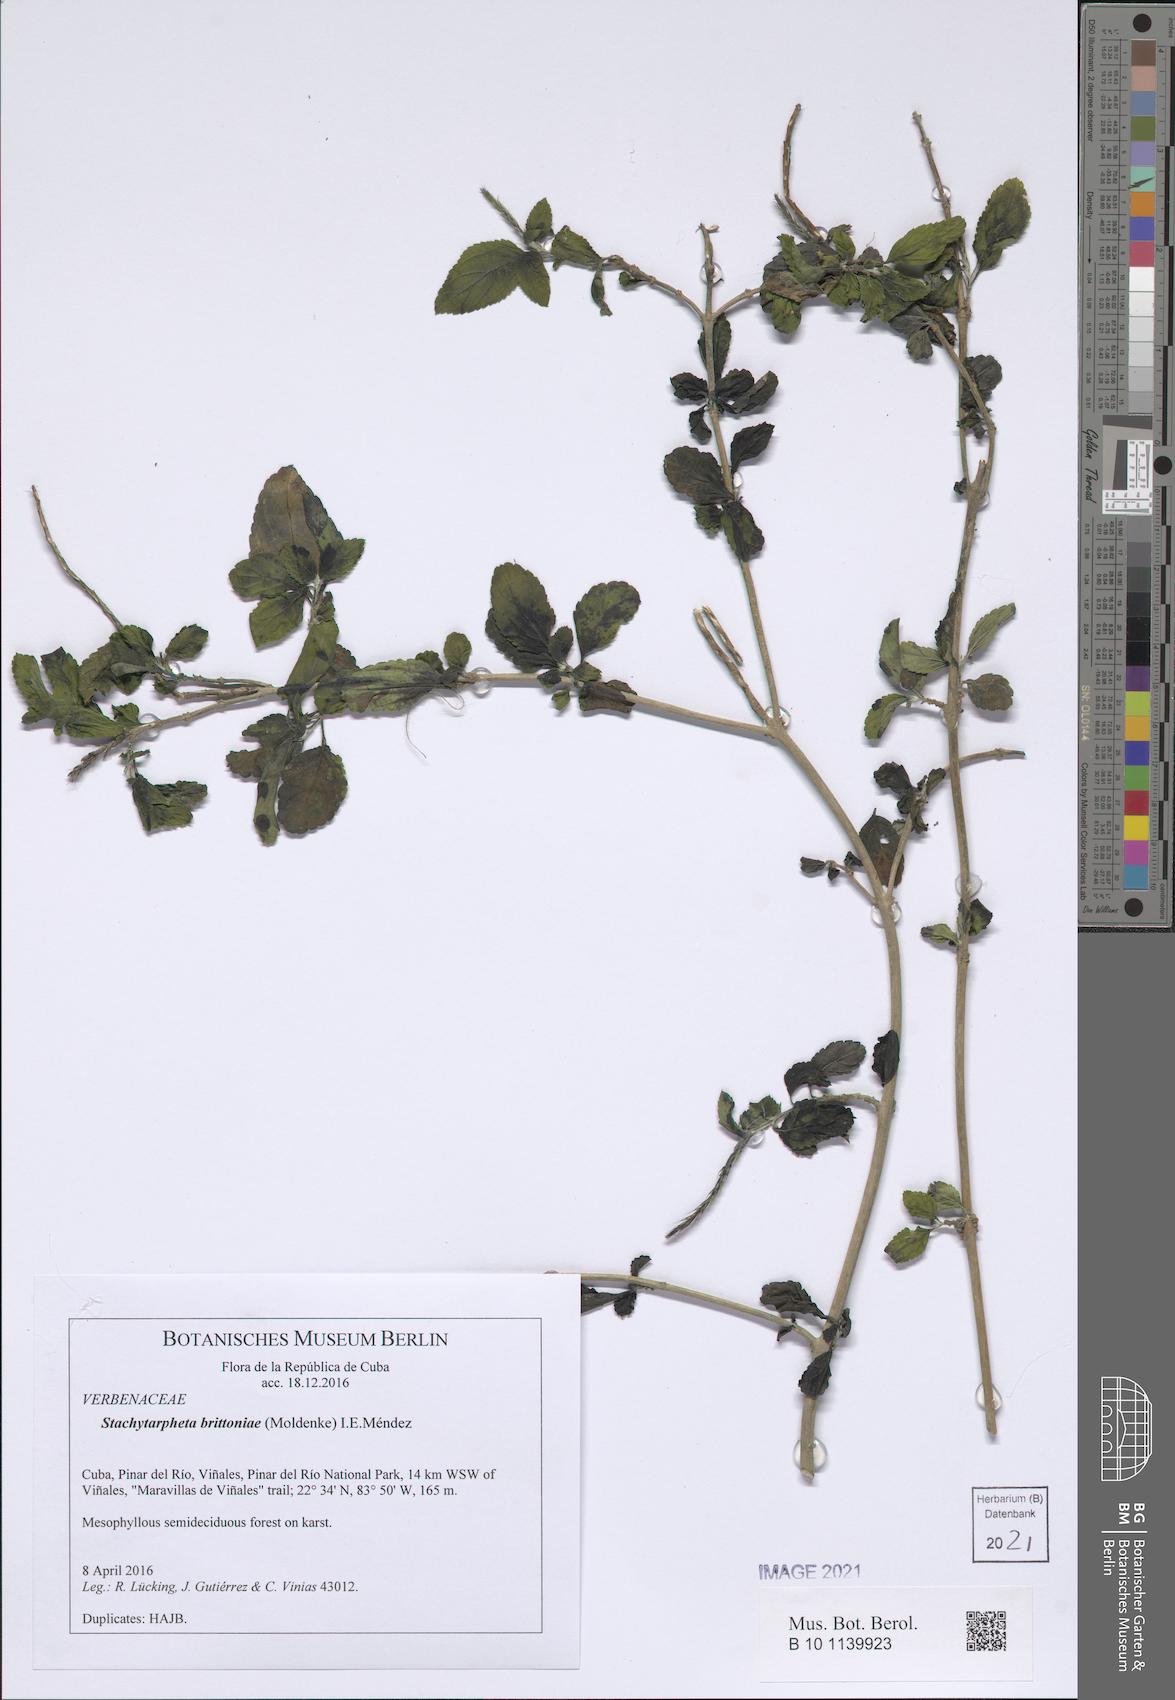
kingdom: Plantae
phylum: Tracheophyta
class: Magnoliopsida
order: Lamiales
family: Verbenaceae
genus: Stachytarpheta
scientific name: Stachytarpheta marginata
